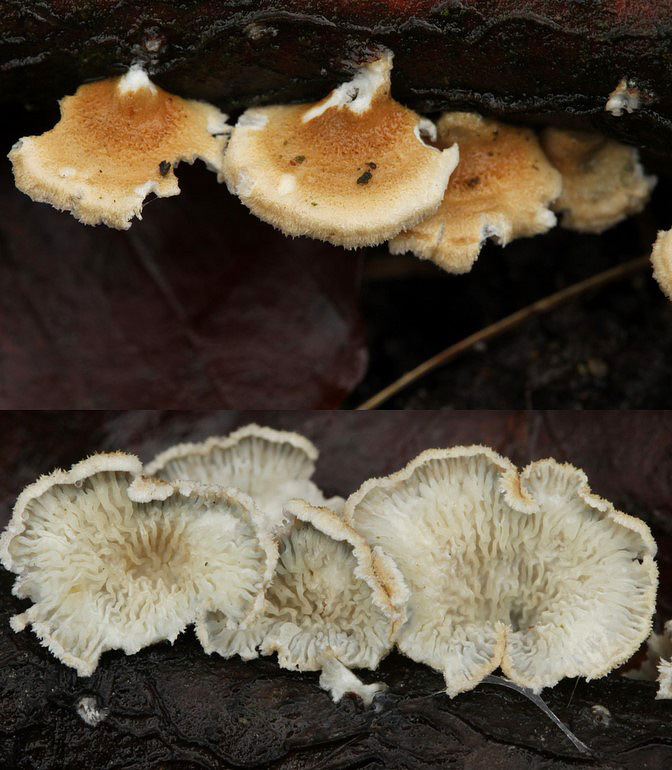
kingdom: Fungi
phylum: Basidiomycota
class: Agaricomycetes
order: Amylocorticiales
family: Amylocorticiaceae
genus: Plicaturopsis
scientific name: Plicaturopsis crispa
